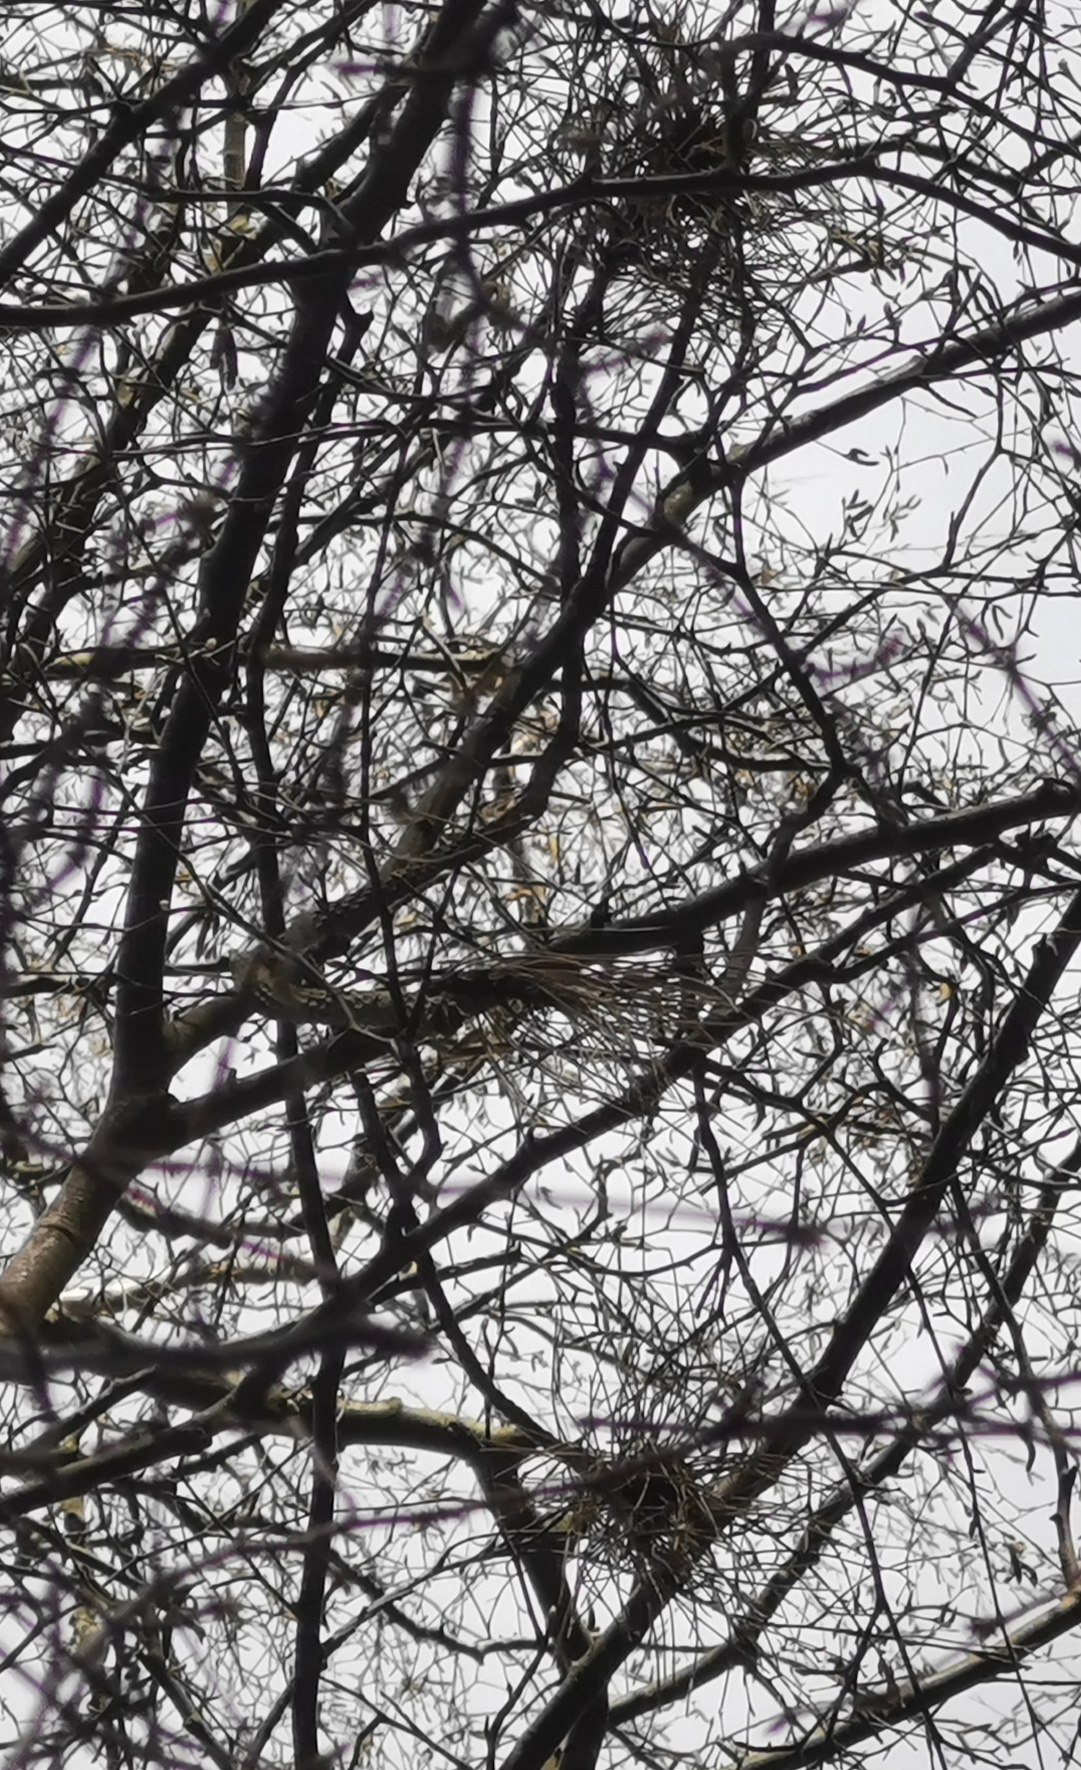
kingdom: Fungi
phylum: Ascomycota
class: Taphrinomycetes
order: Taphrinales
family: Taphrinaceae
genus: Taphrina
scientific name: Taphrina betulina
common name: hekse-sækdug
